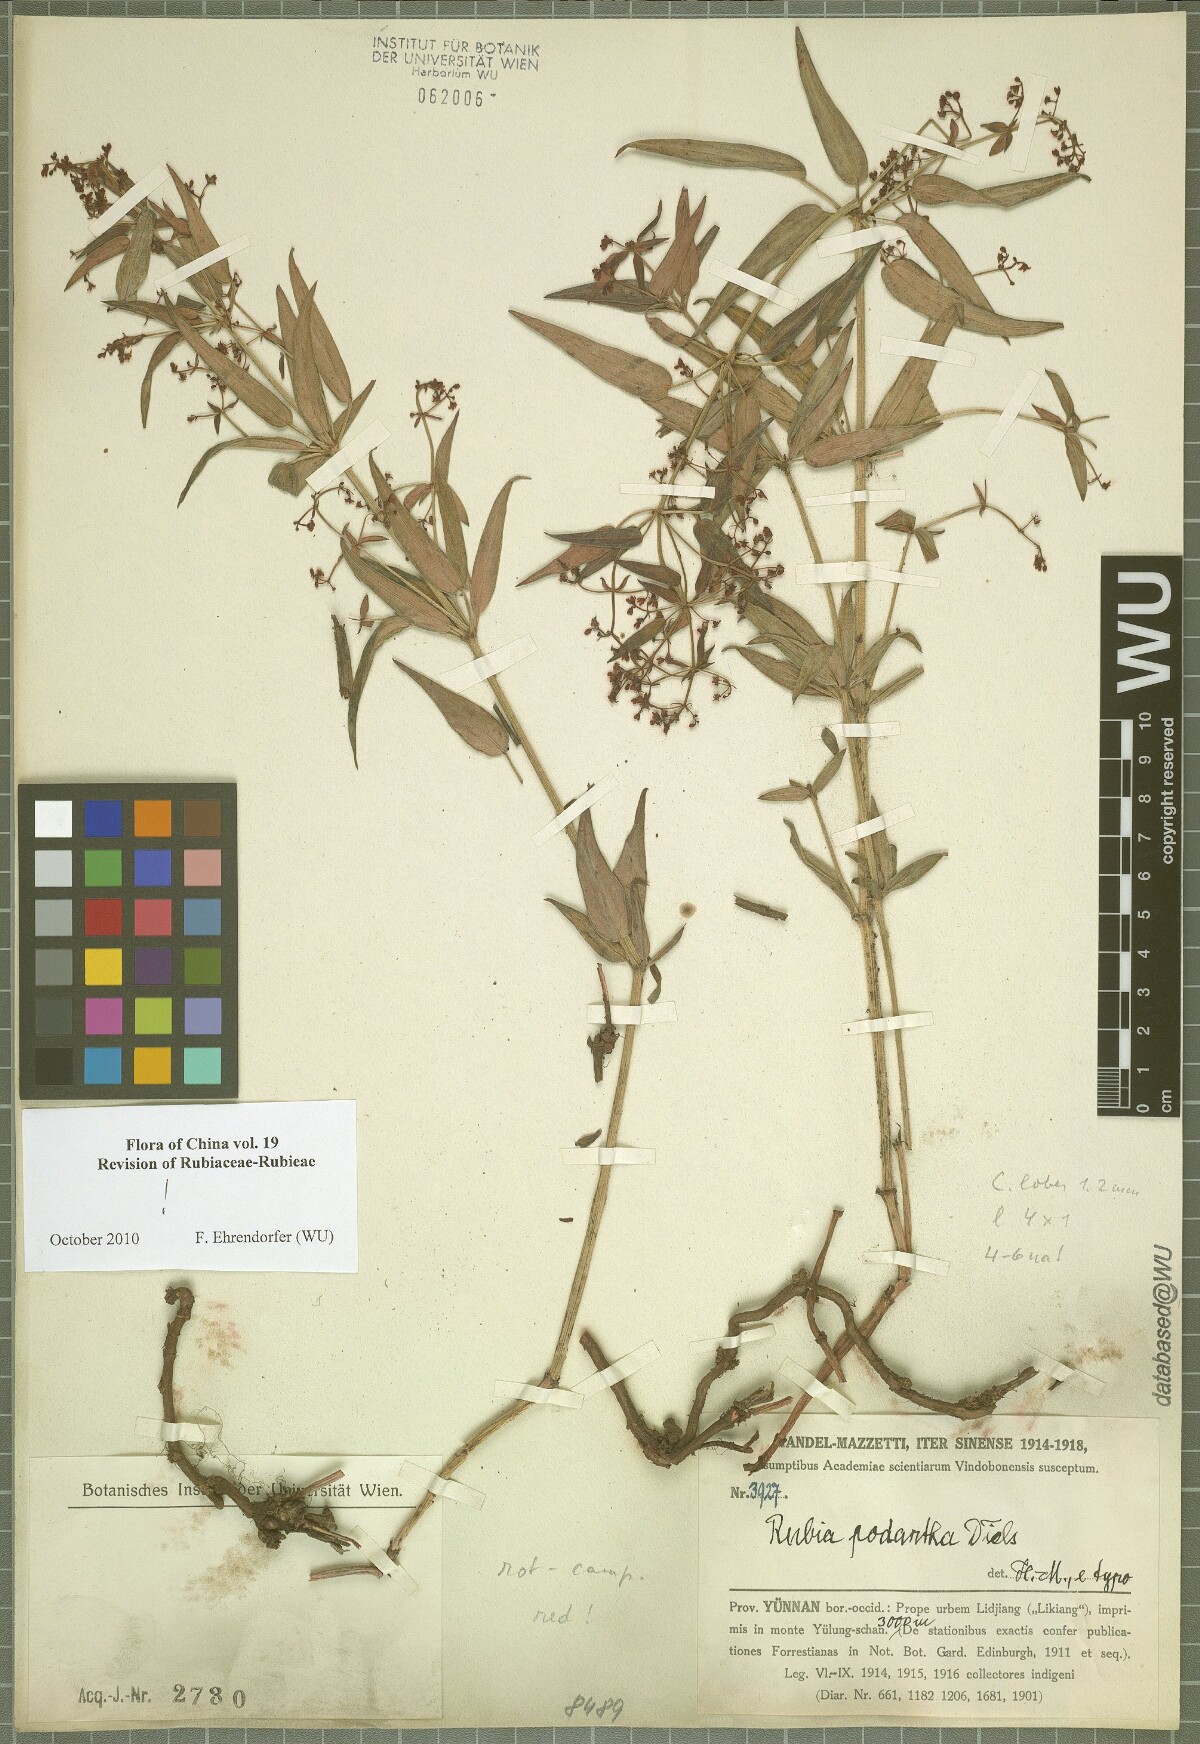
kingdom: Plantae
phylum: Tracheophyta
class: Magnoliopsida
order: Gentianales
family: Rubiaceae
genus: Rubia
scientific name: Rubia podantha
